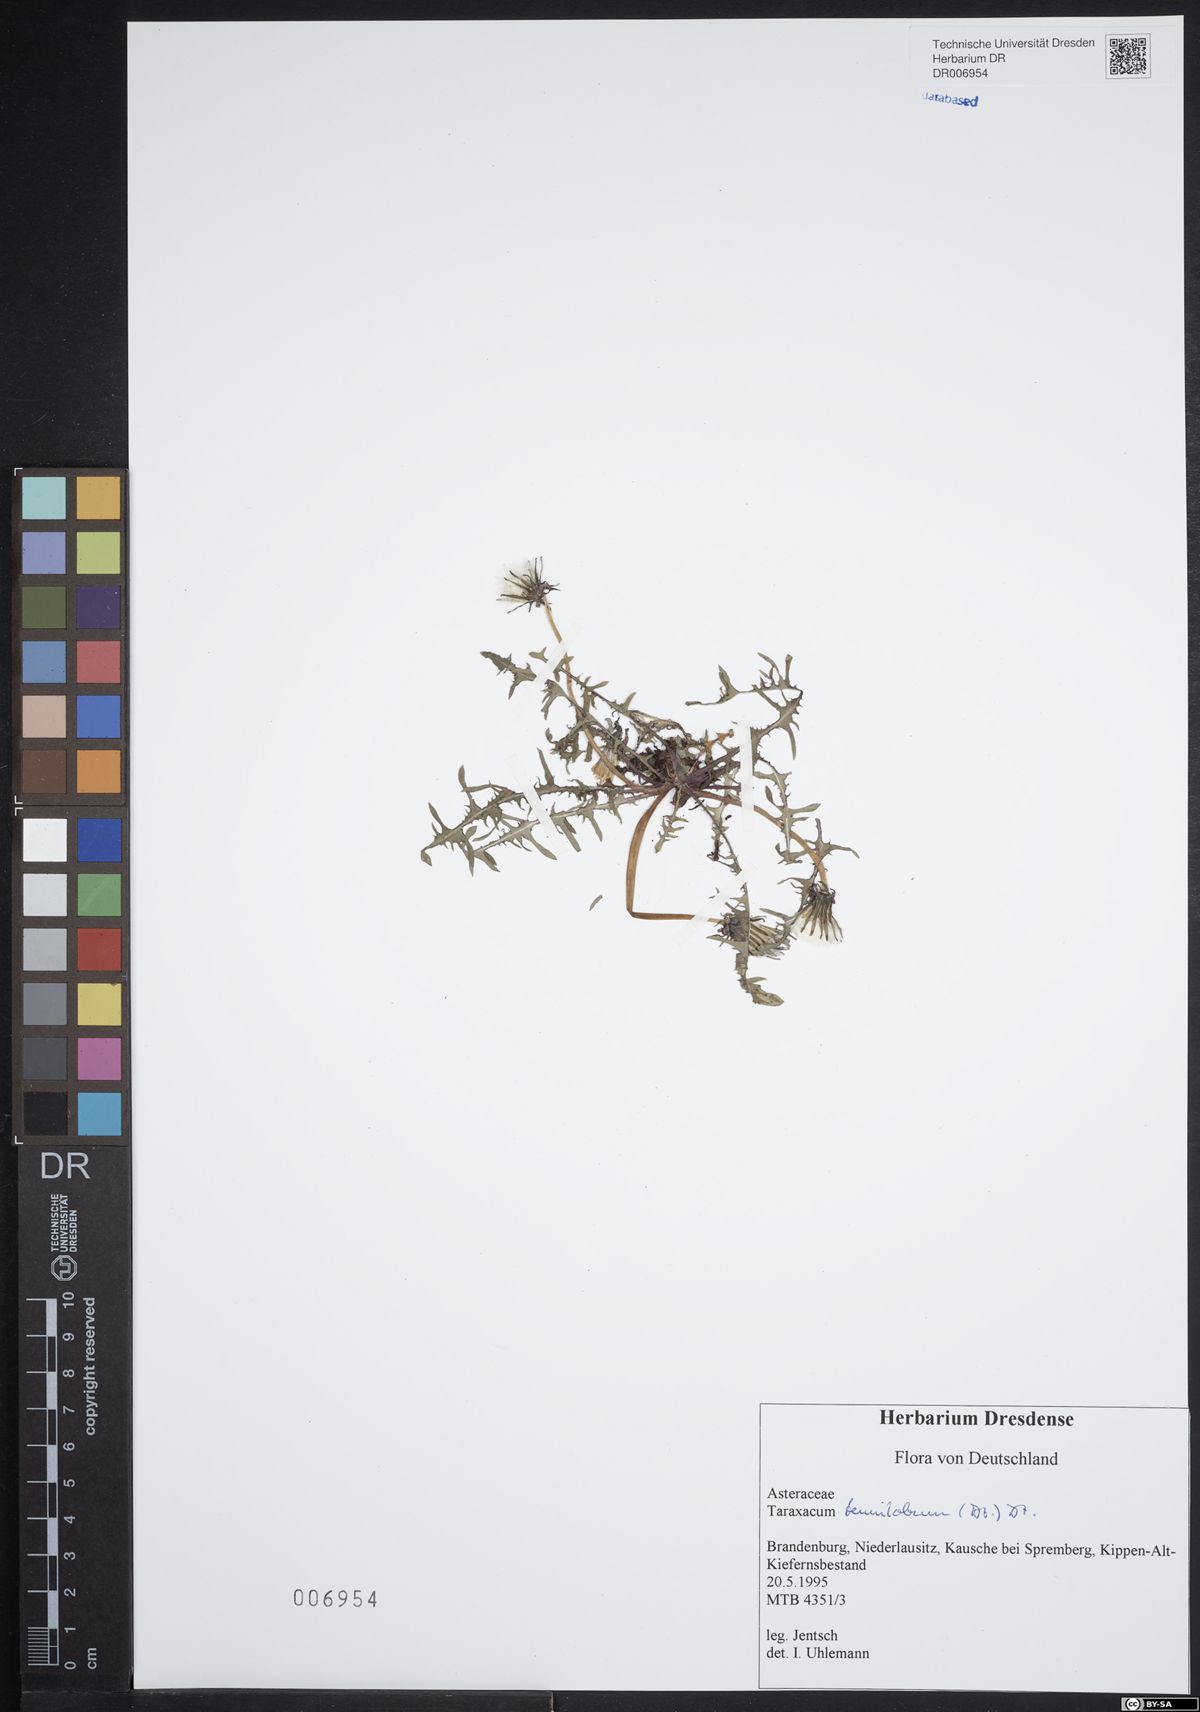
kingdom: Plantae
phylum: Tracheophyta
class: Magnoliopsida
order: Asterales
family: Asteraceae
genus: Taraxacum
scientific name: Taraxacum tenuilobum
